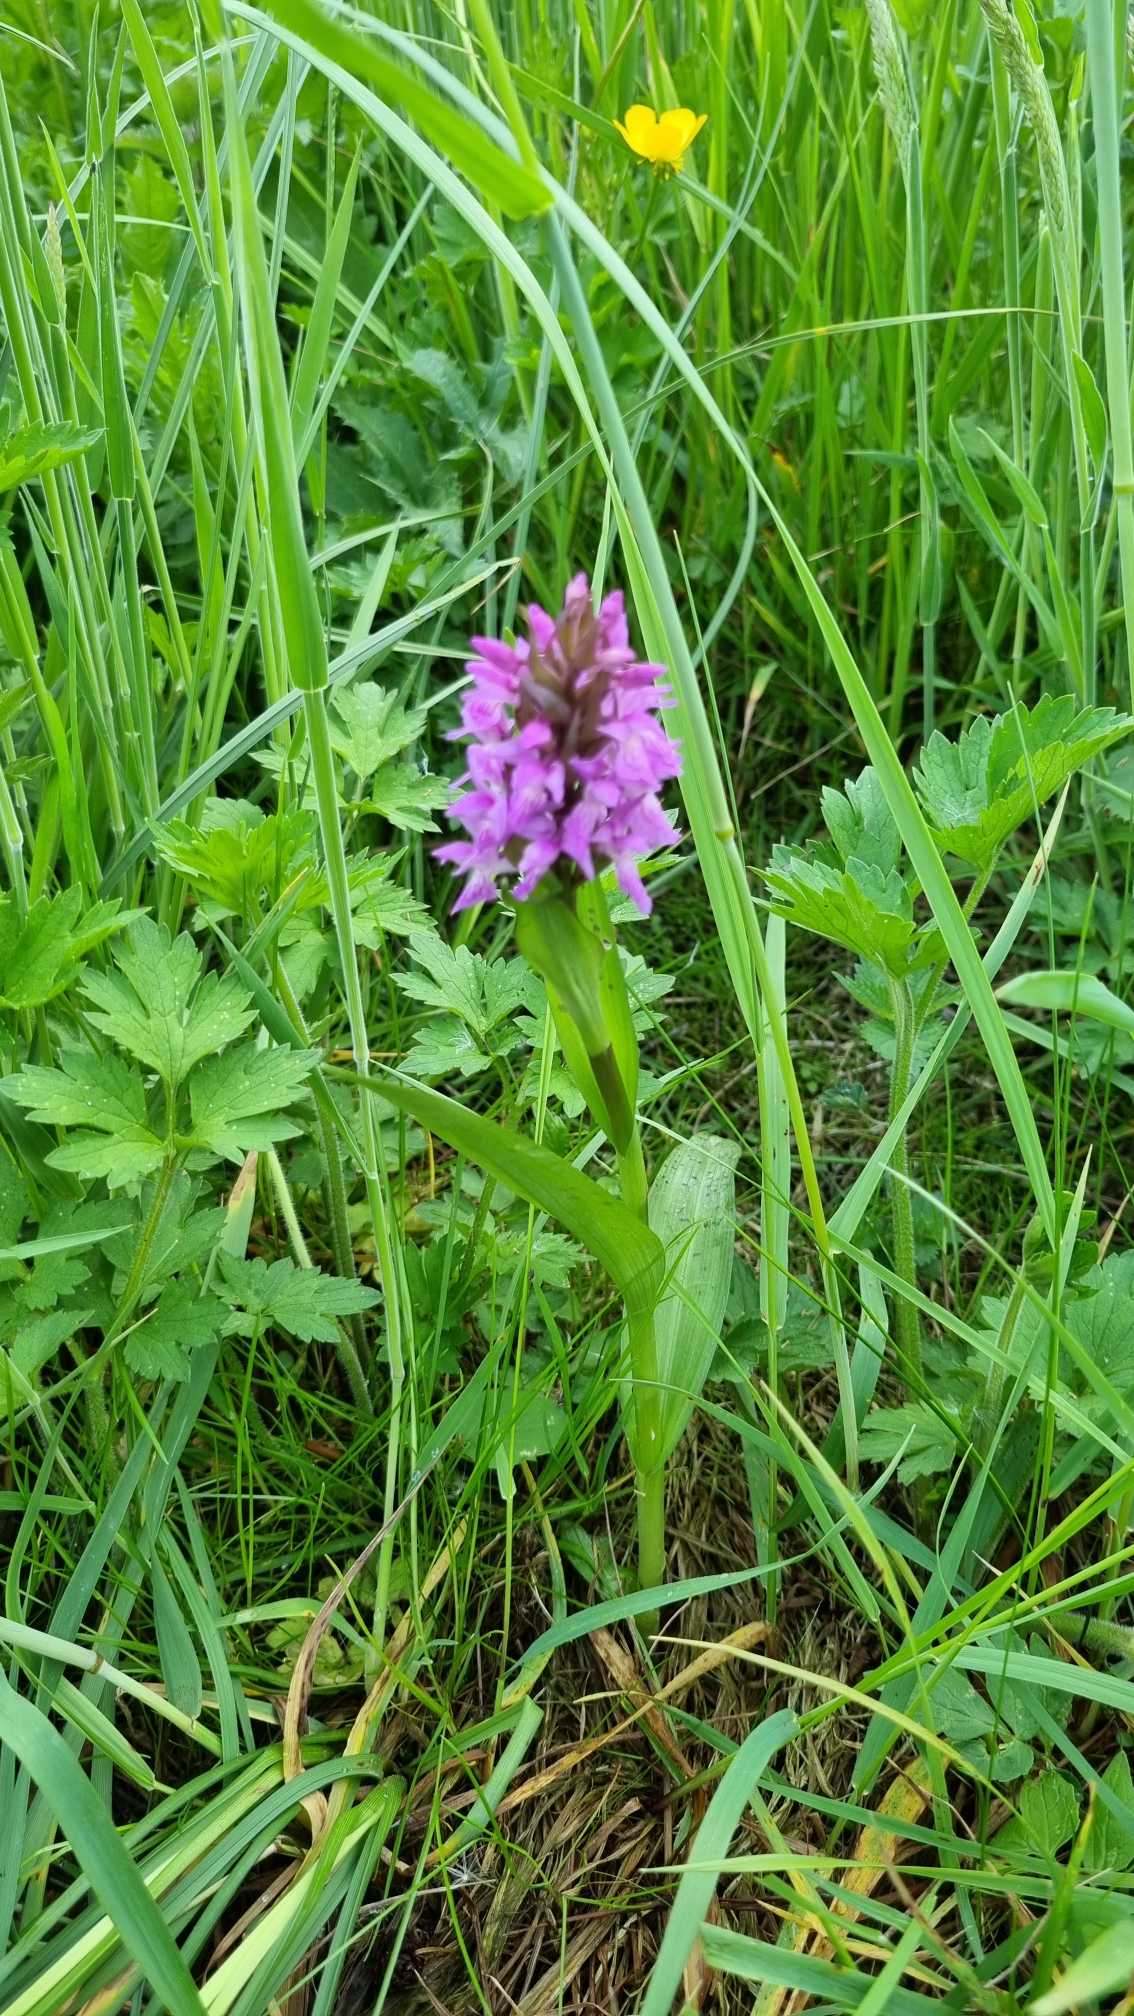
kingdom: Plantae
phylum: Tracheophyta
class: Liliopsida
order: Asparagales
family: Orchidaceae
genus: Dactylorhiza
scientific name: Dactylorhiza majalis
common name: Maj-gøgeurt
